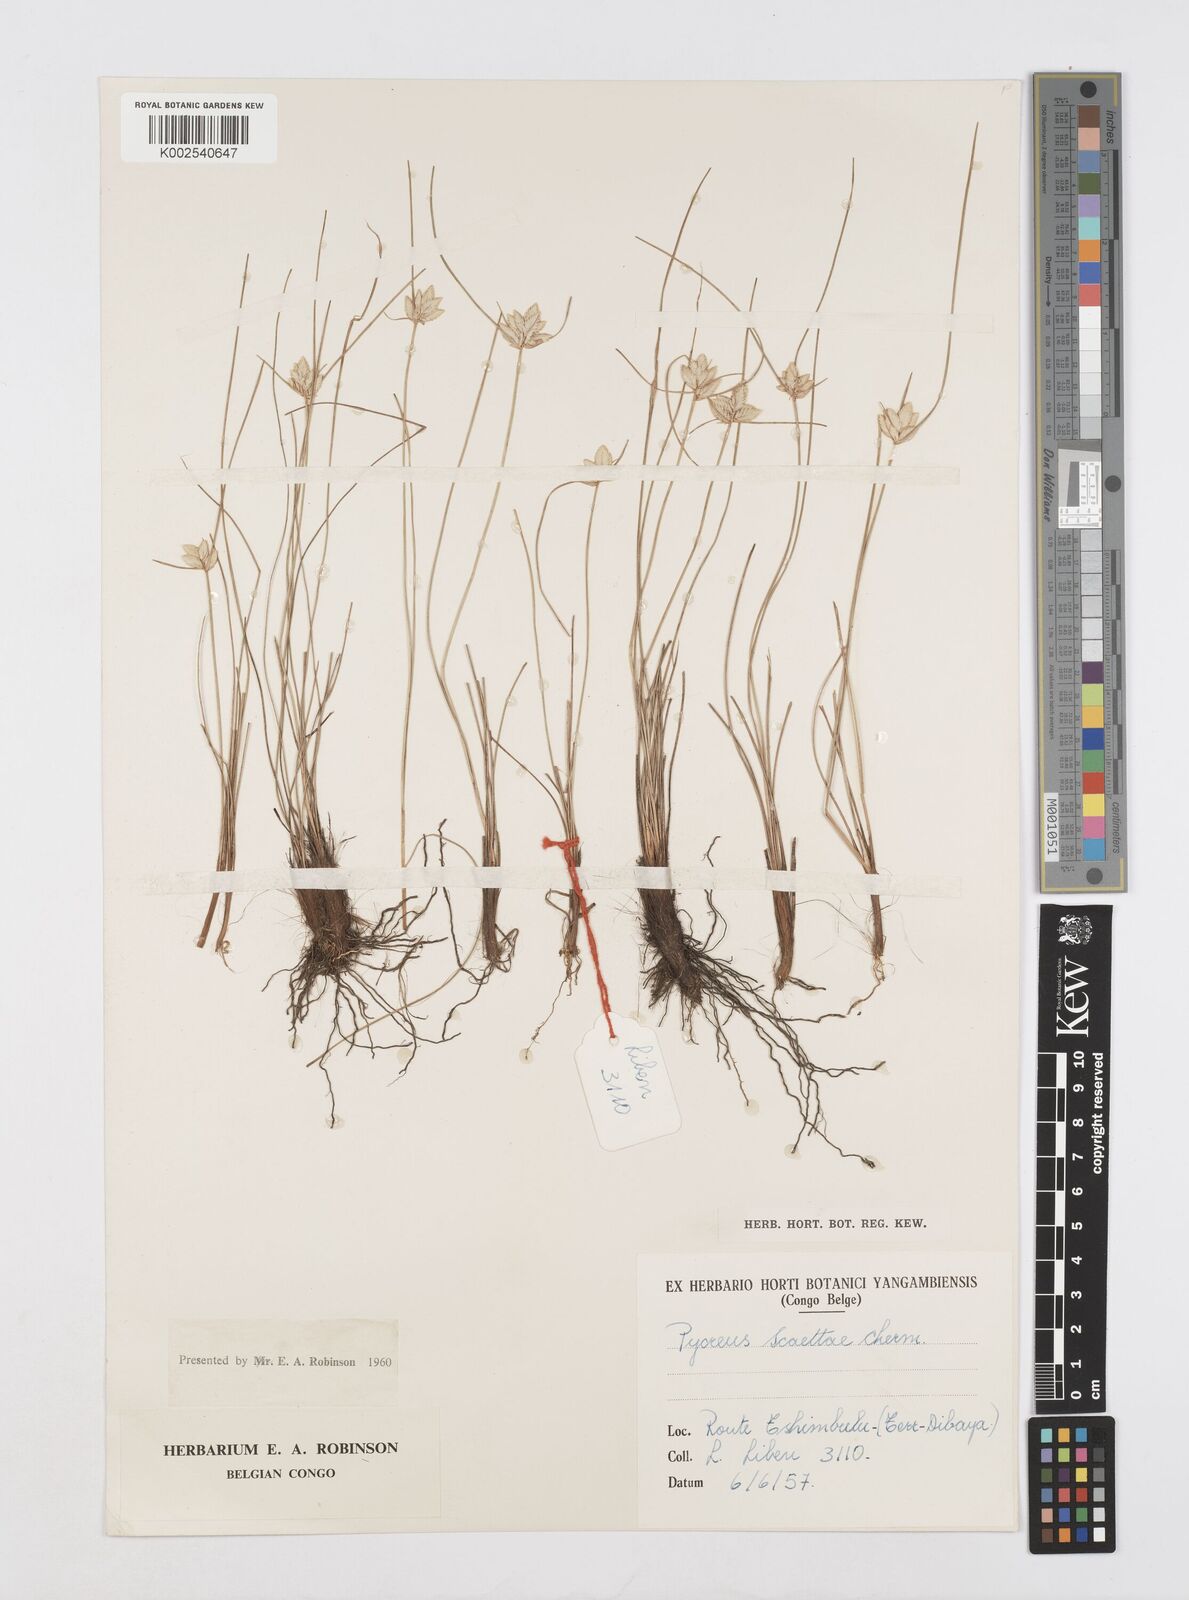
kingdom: Plantae
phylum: Tracheophyta
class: Liliopsida
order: Poales
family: Cyperaceae
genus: Cyperus
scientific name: Cyperus scaettae
